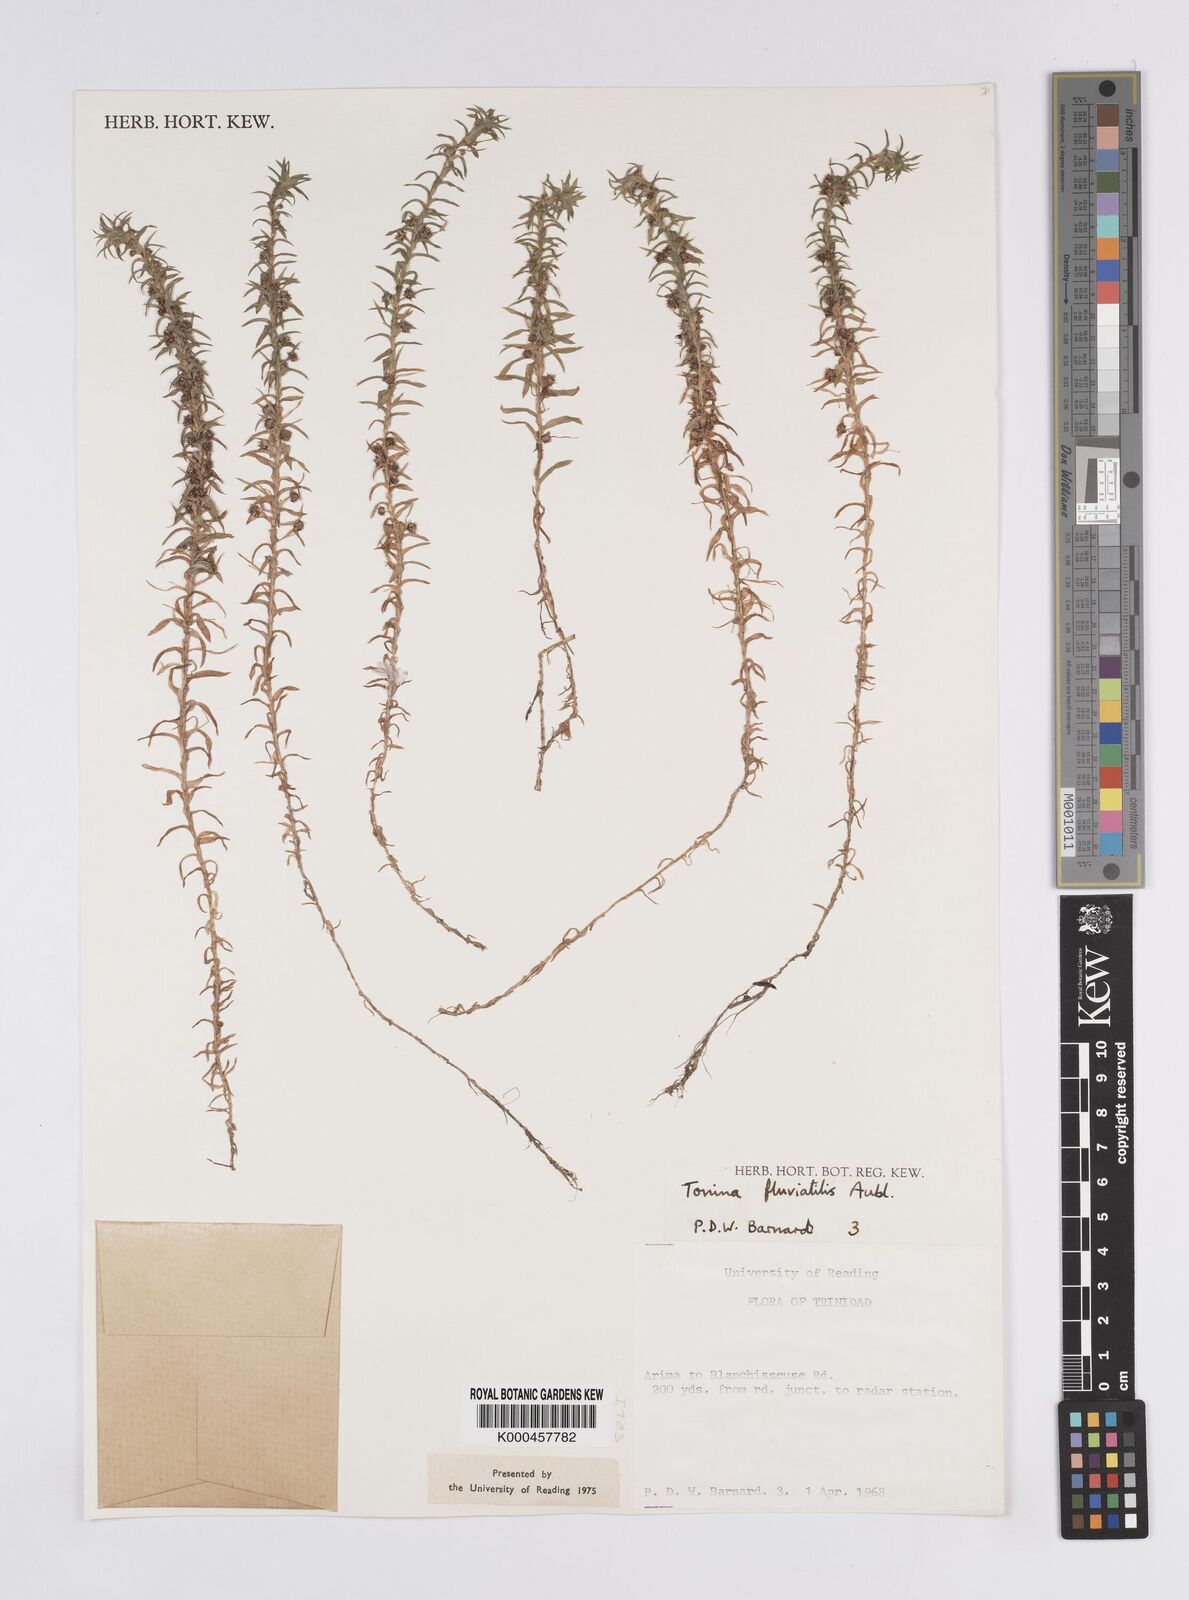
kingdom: Plantae
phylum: Tracheophyta
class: Liliopsida
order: Poales
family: Eriocaulaceae
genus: Paepalanthus
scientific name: Paepalanthus fluviatilis
